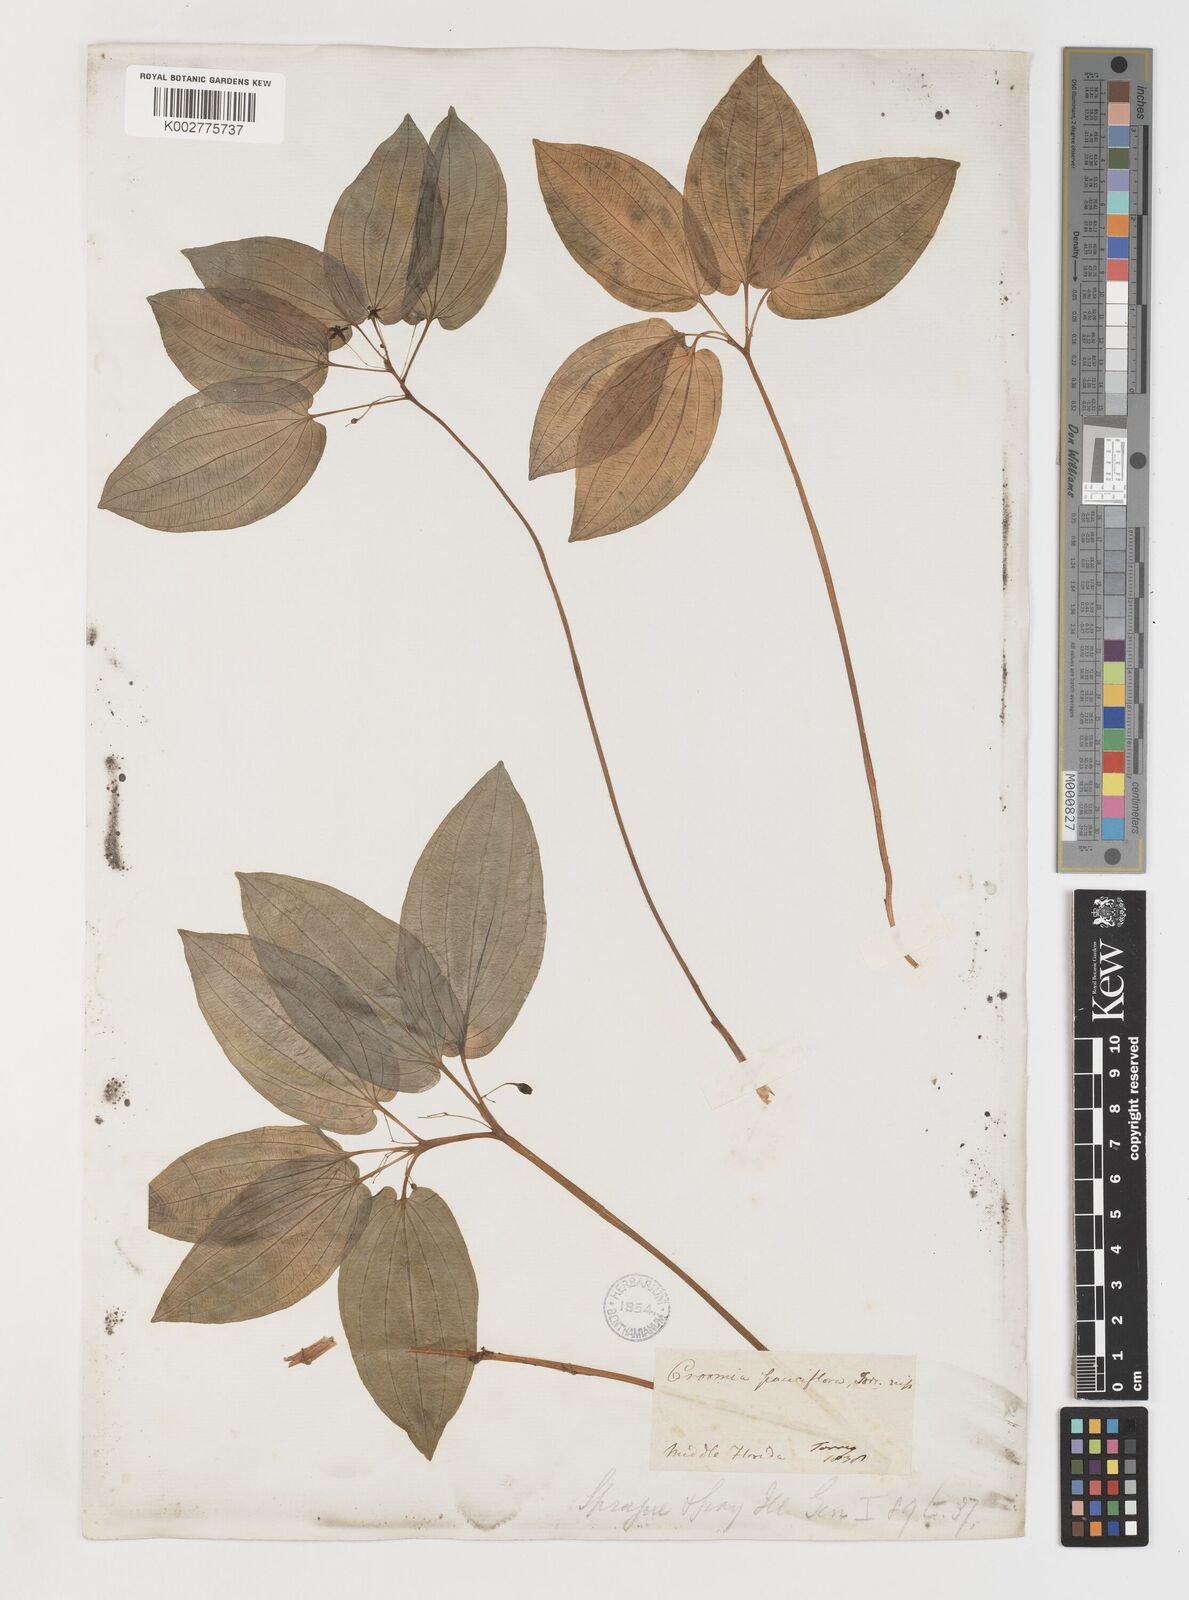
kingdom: Plantae
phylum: Tracheophyta
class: Liliopsida
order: Pandanales
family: Stemonaceae
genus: Croomia
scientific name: Croomia pauciflora
